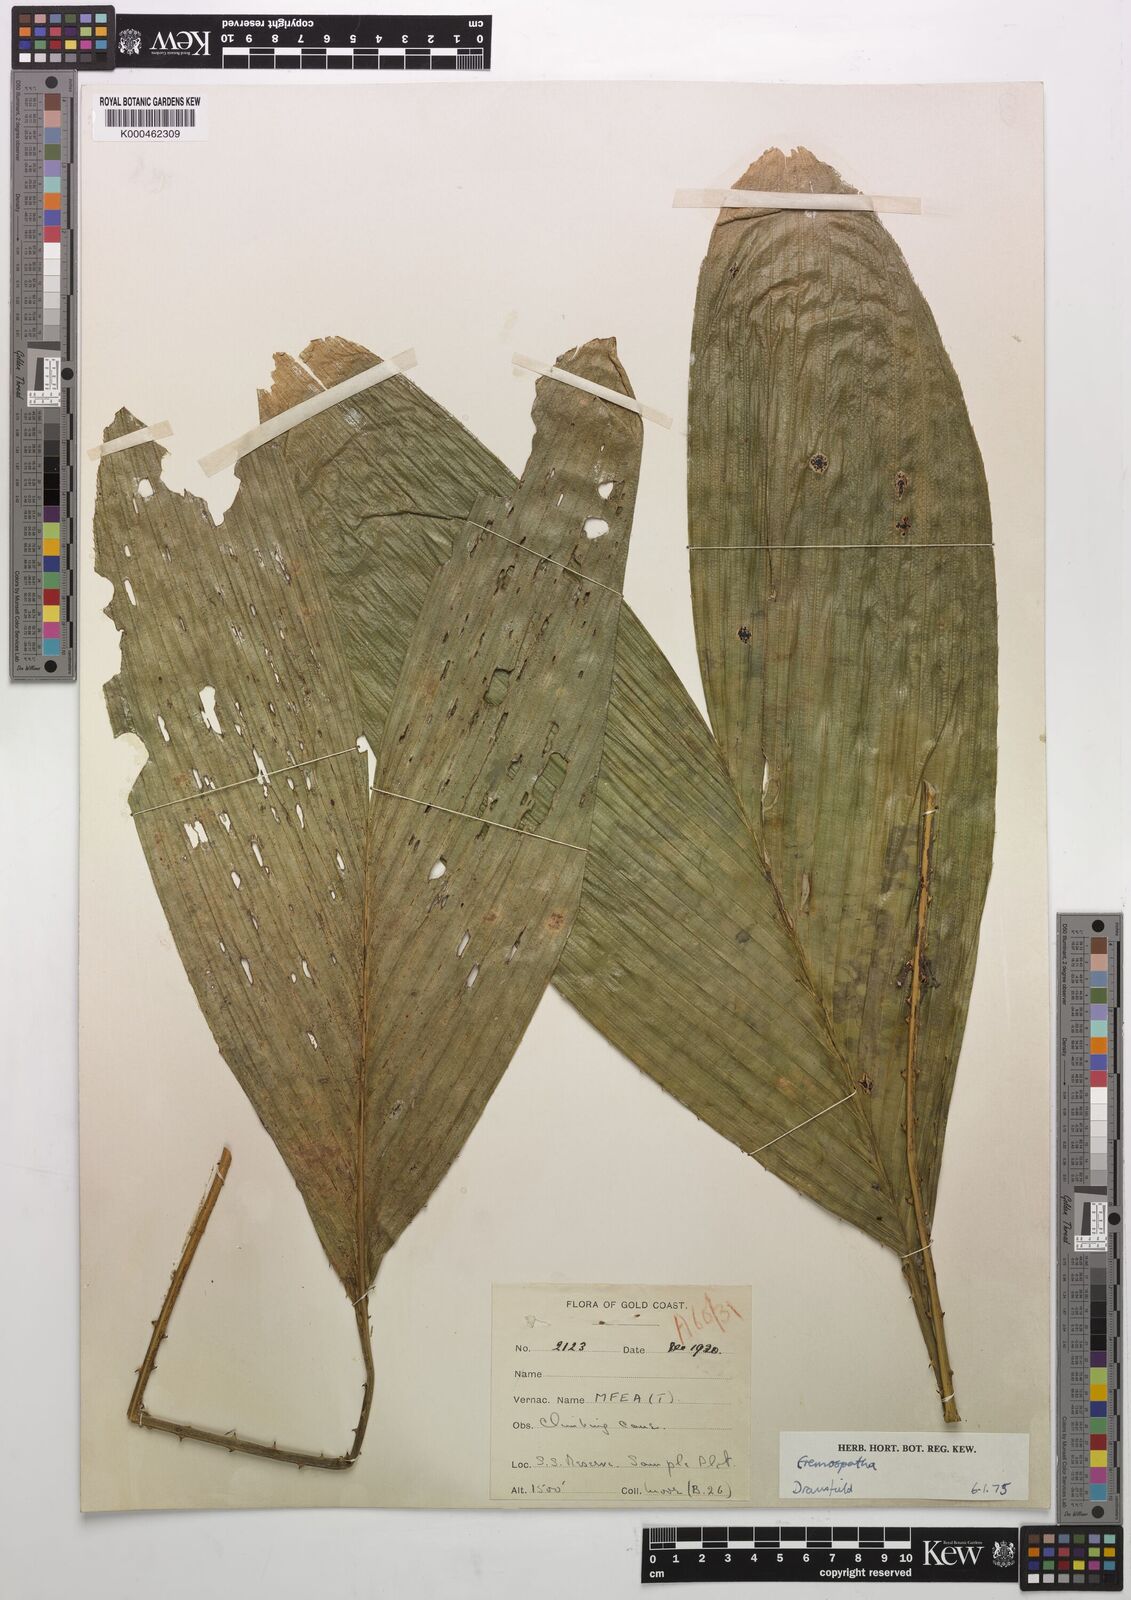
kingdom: Plantae
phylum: Tracheophyta
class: Liliopsida
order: Arecales
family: Arecaceae
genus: Eremospatha
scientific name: Eremospatha
